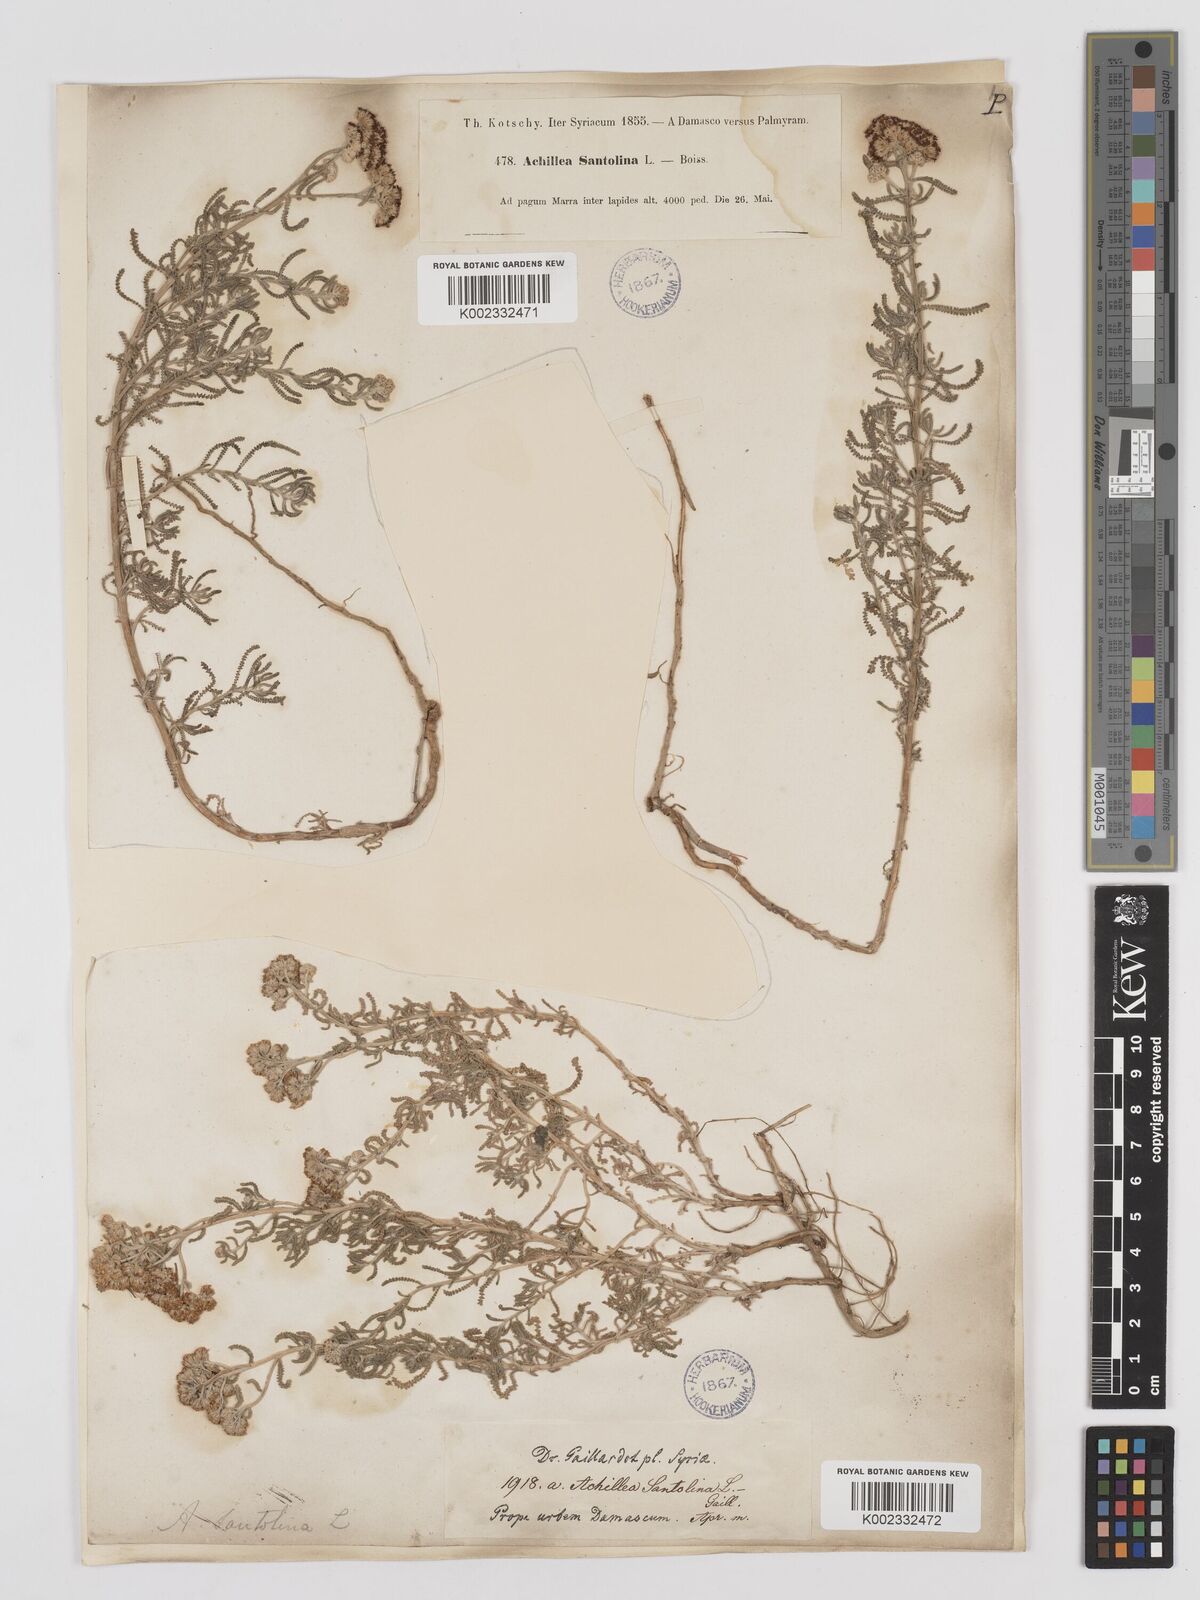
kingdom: Plantae
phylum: Tracheophyta
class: Magnoliopsida
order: Asterales
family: Asteraceae
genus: Achillea
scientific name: Achillea tenuifolia
